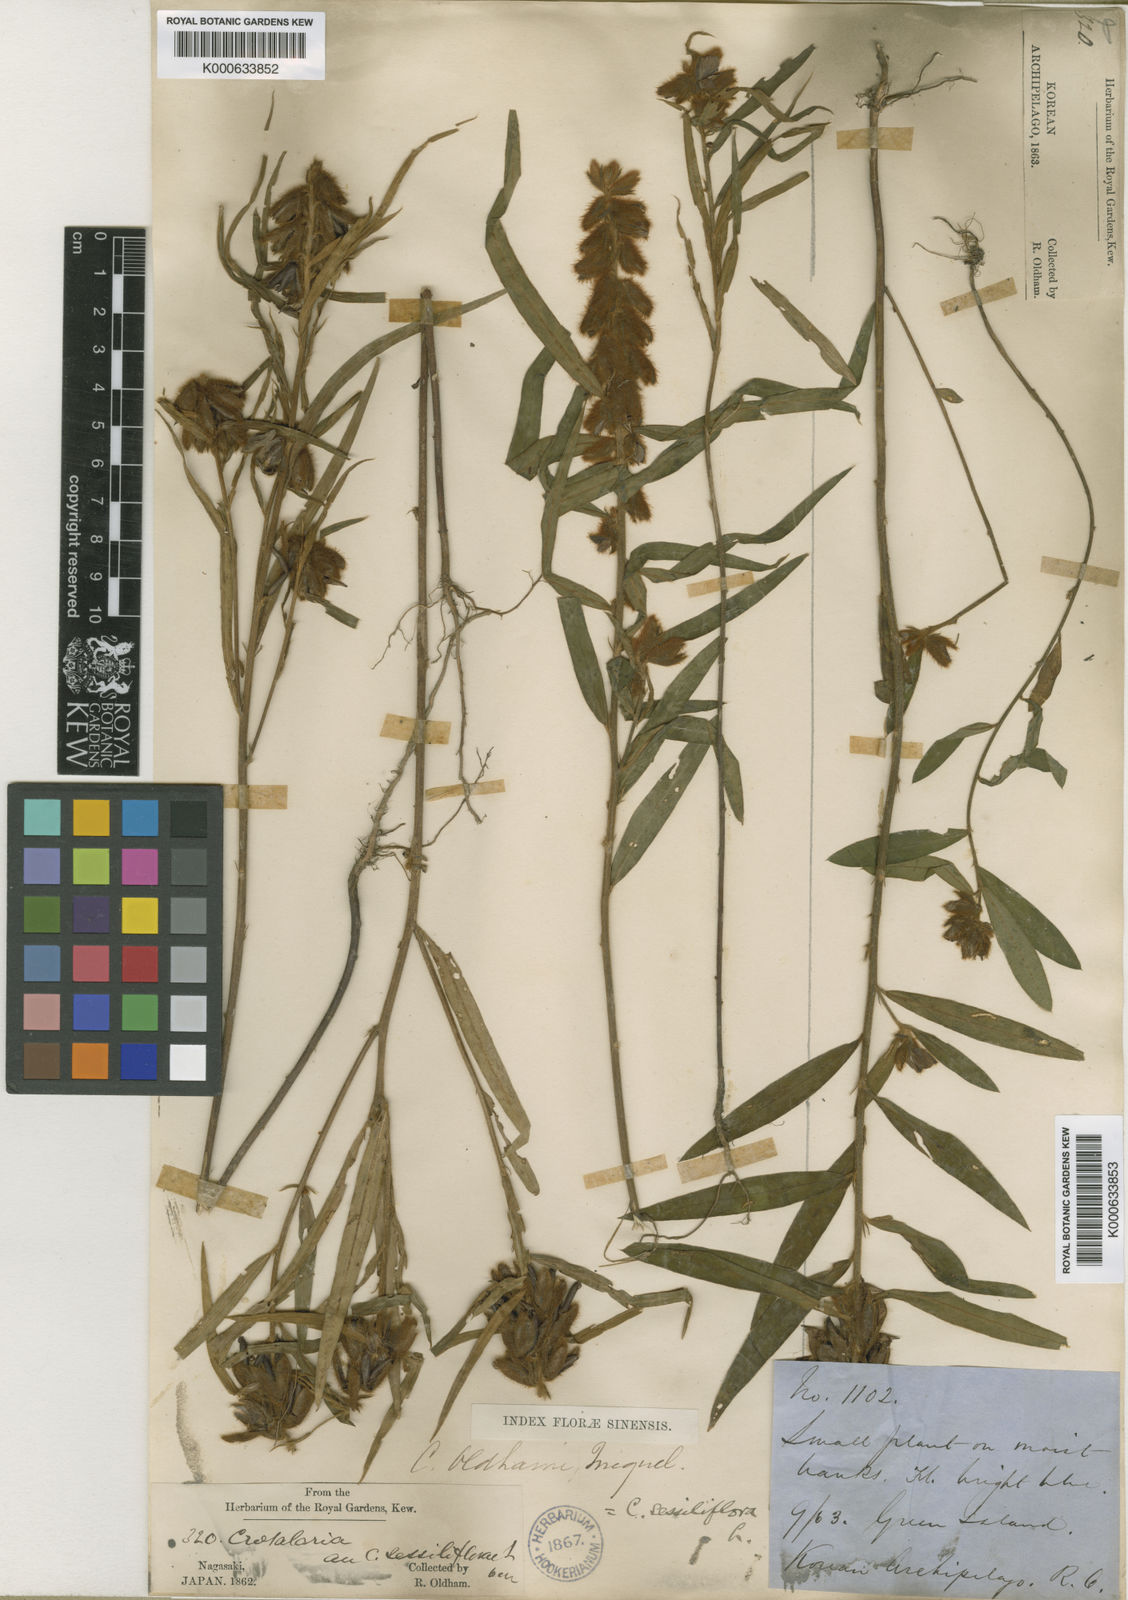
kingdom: Plantae
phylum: Tracheophyta
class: Magnoliopsida
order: Fabales
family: Fabaceae
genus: Crotalaria
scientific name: Crotalaria sessiliflora
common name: Rattlebox
